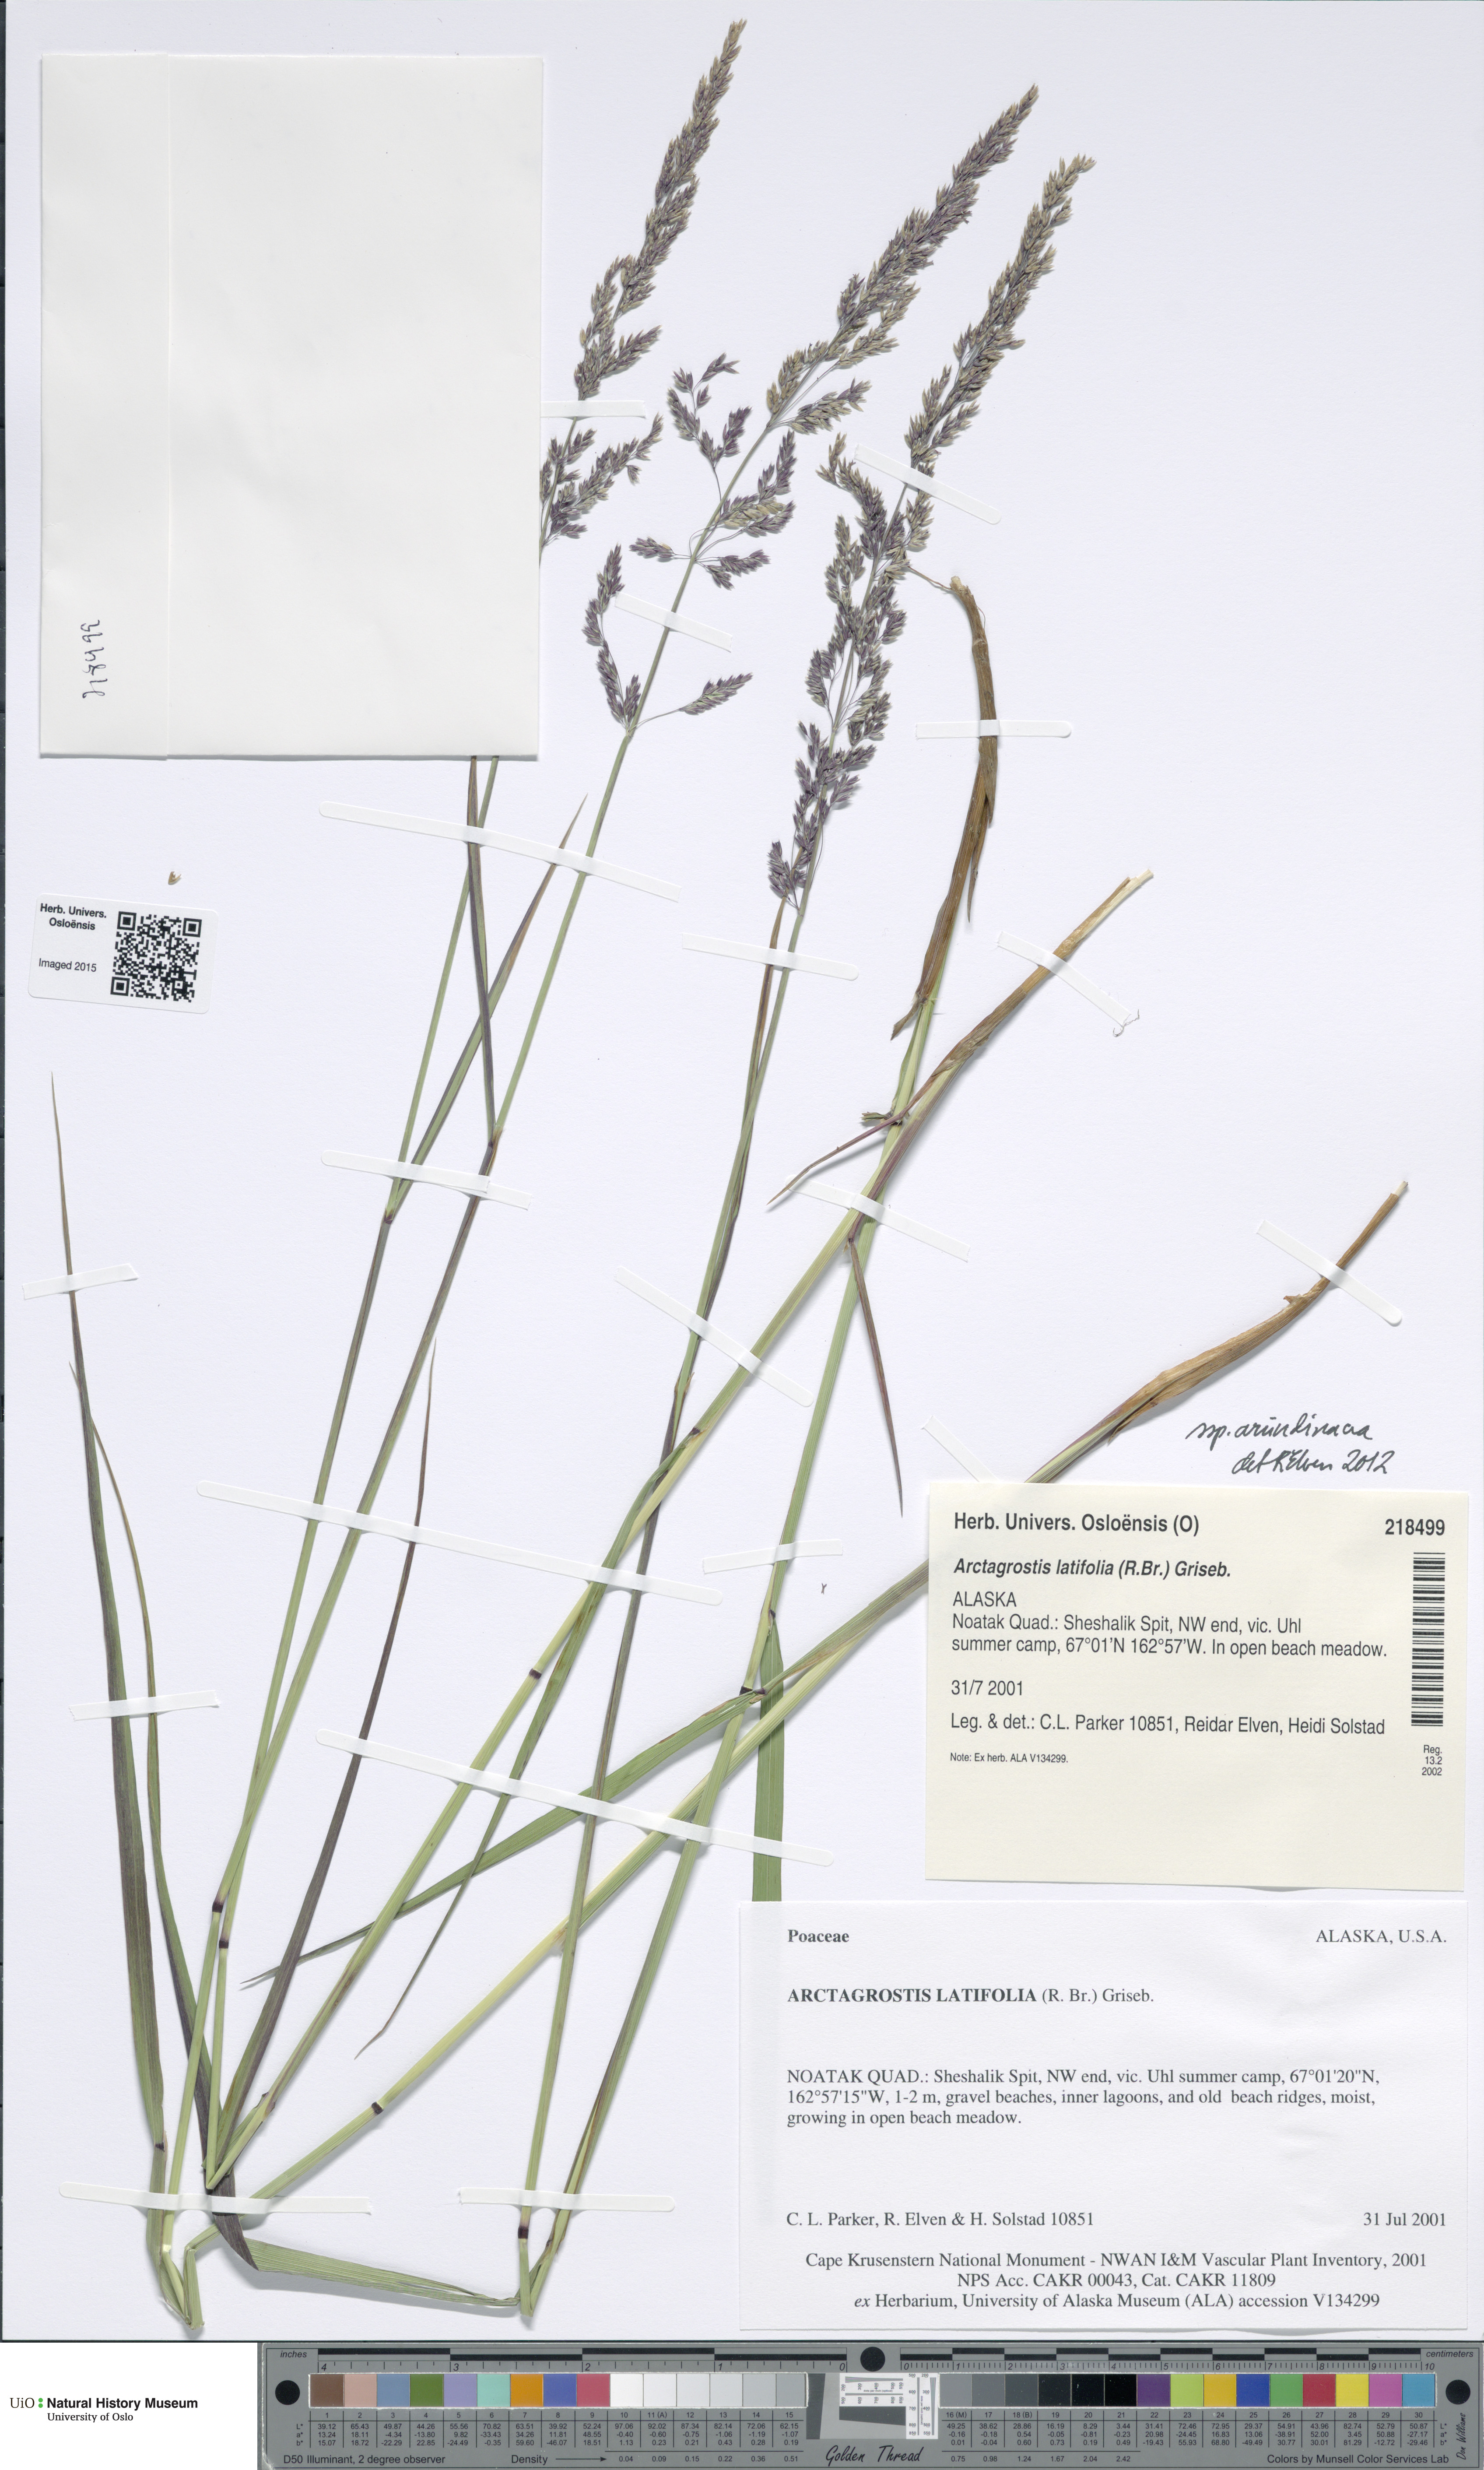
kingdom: Plantae
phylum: Tracheophyta
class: Liliopsida
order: Poales
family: Poaceae
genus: Arctagrostis
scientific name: Arctagrostis arundinacea
